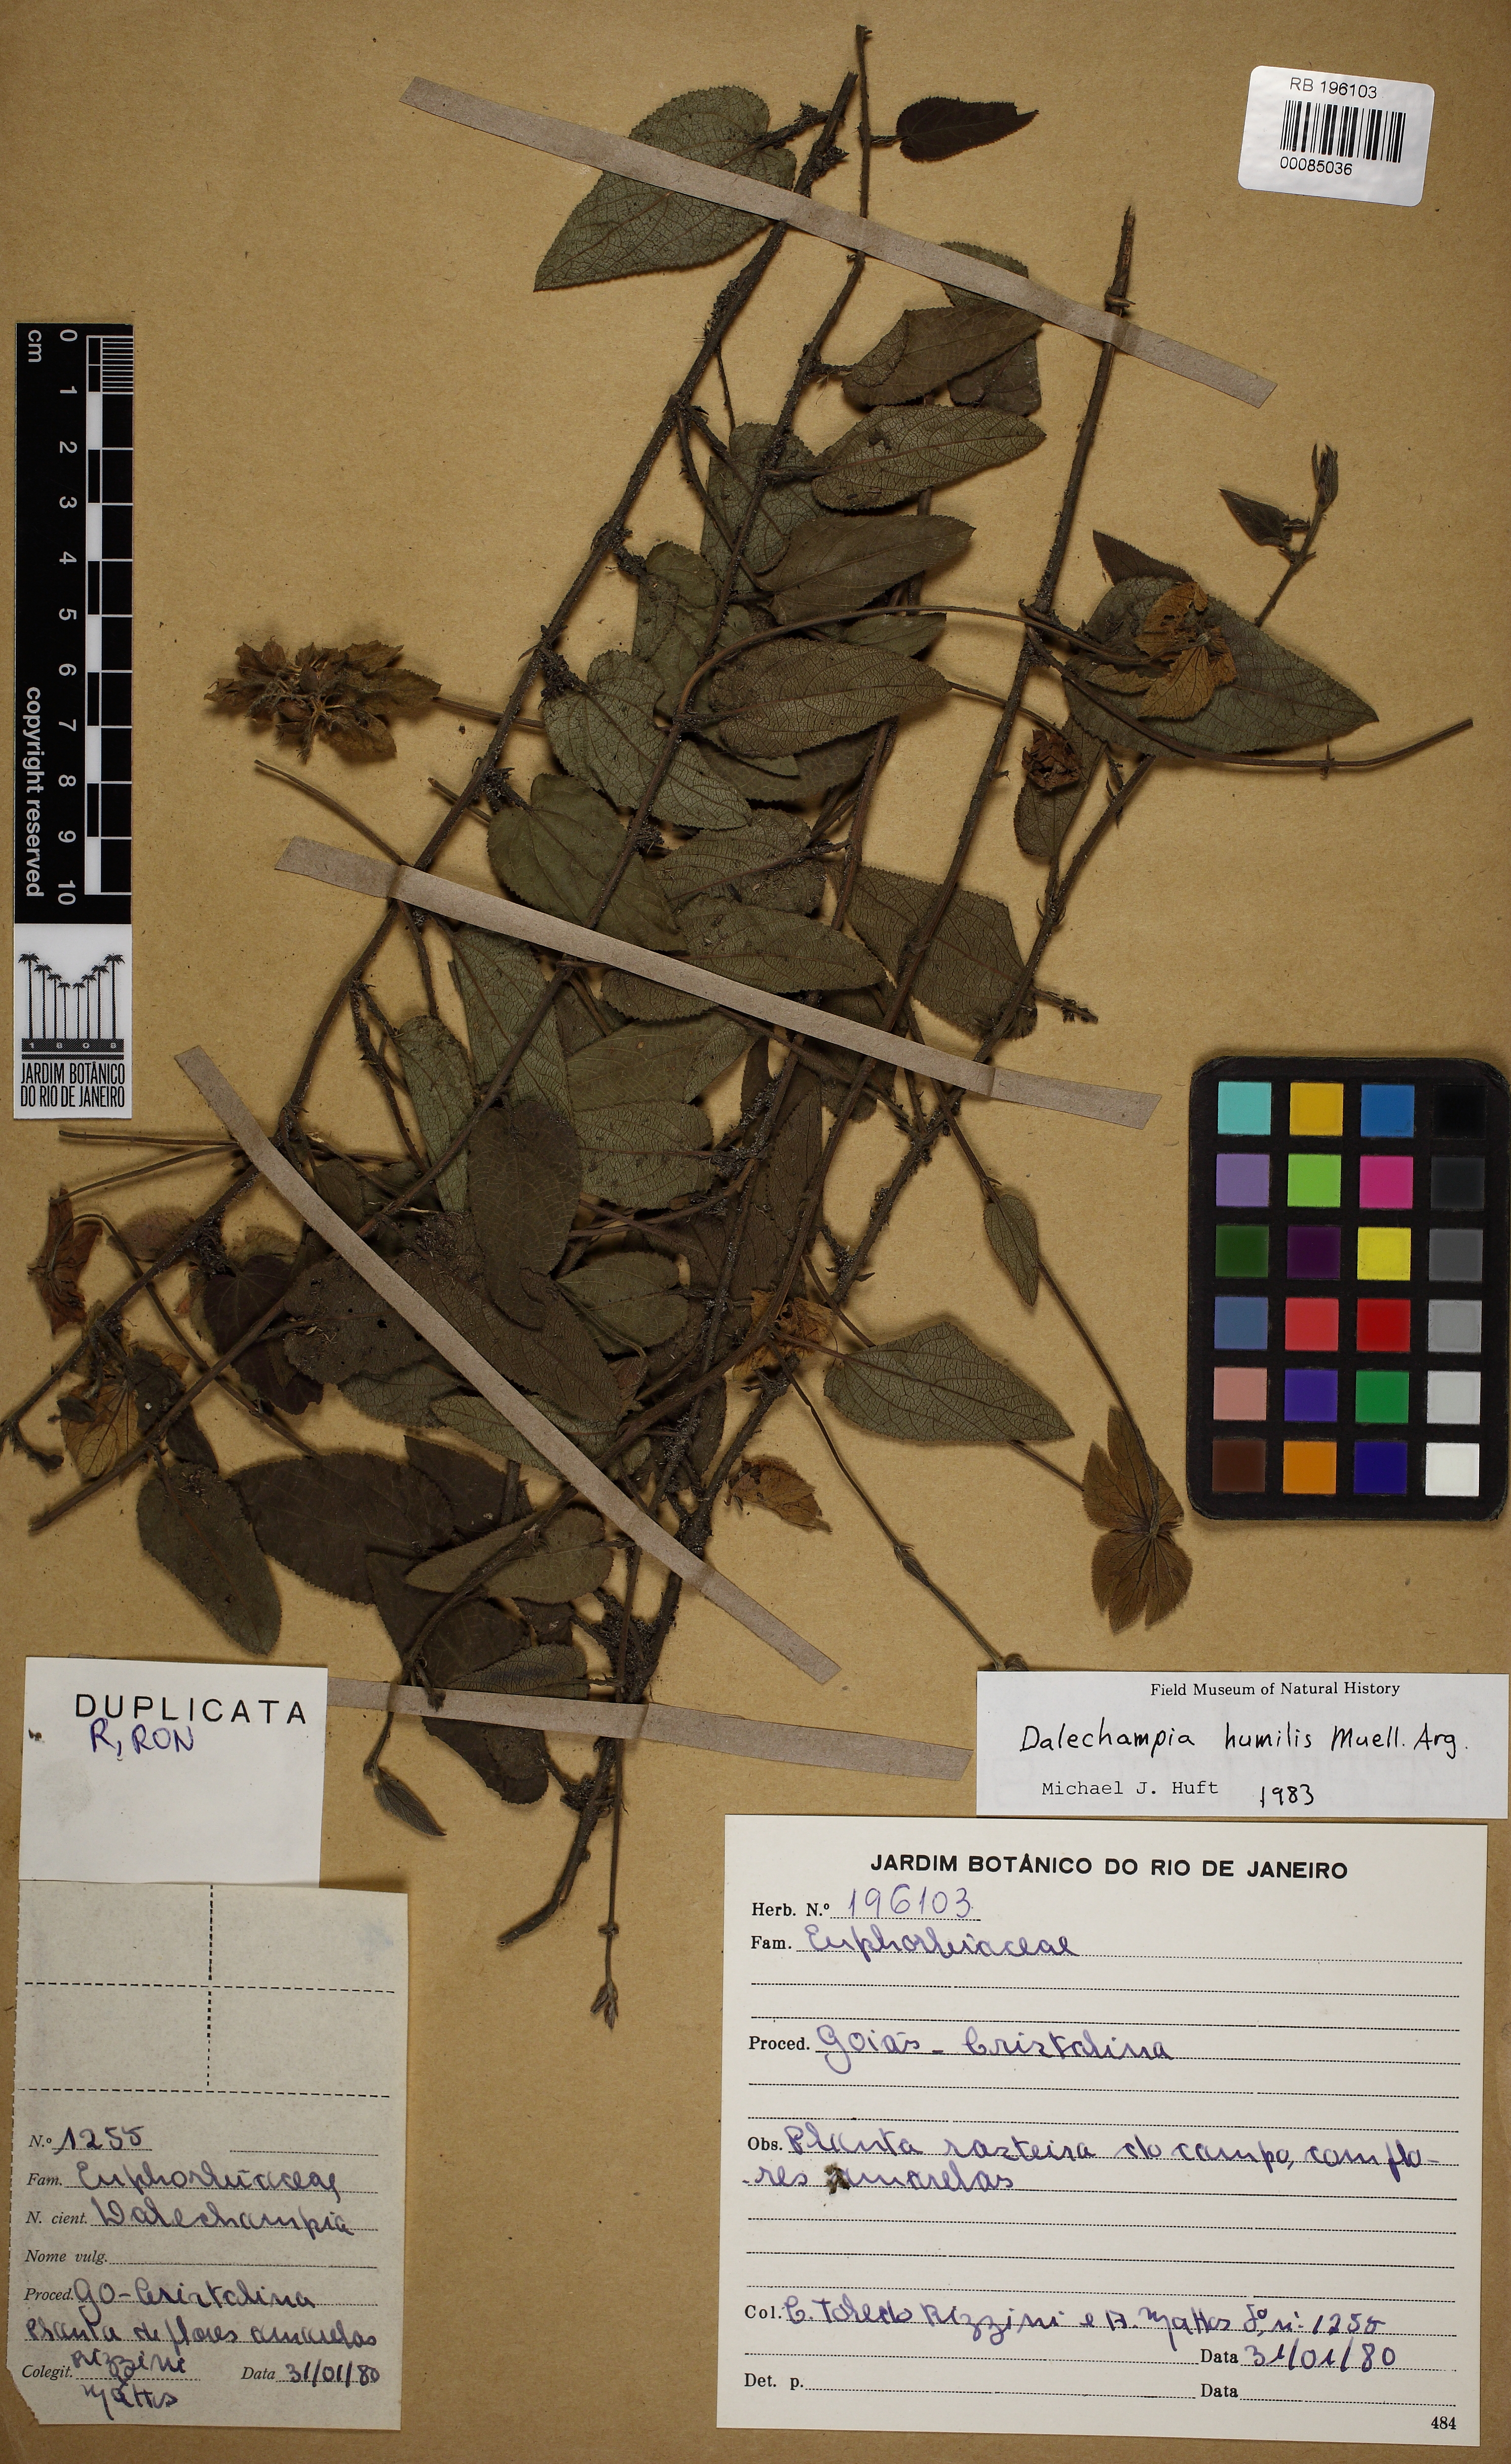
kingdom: Plantae
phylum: Tracheophyta
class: Magnoliopsida
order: Malpighiales
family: Euphorbiaceae
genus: Dalechampia
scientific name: Dalechampia humilis
